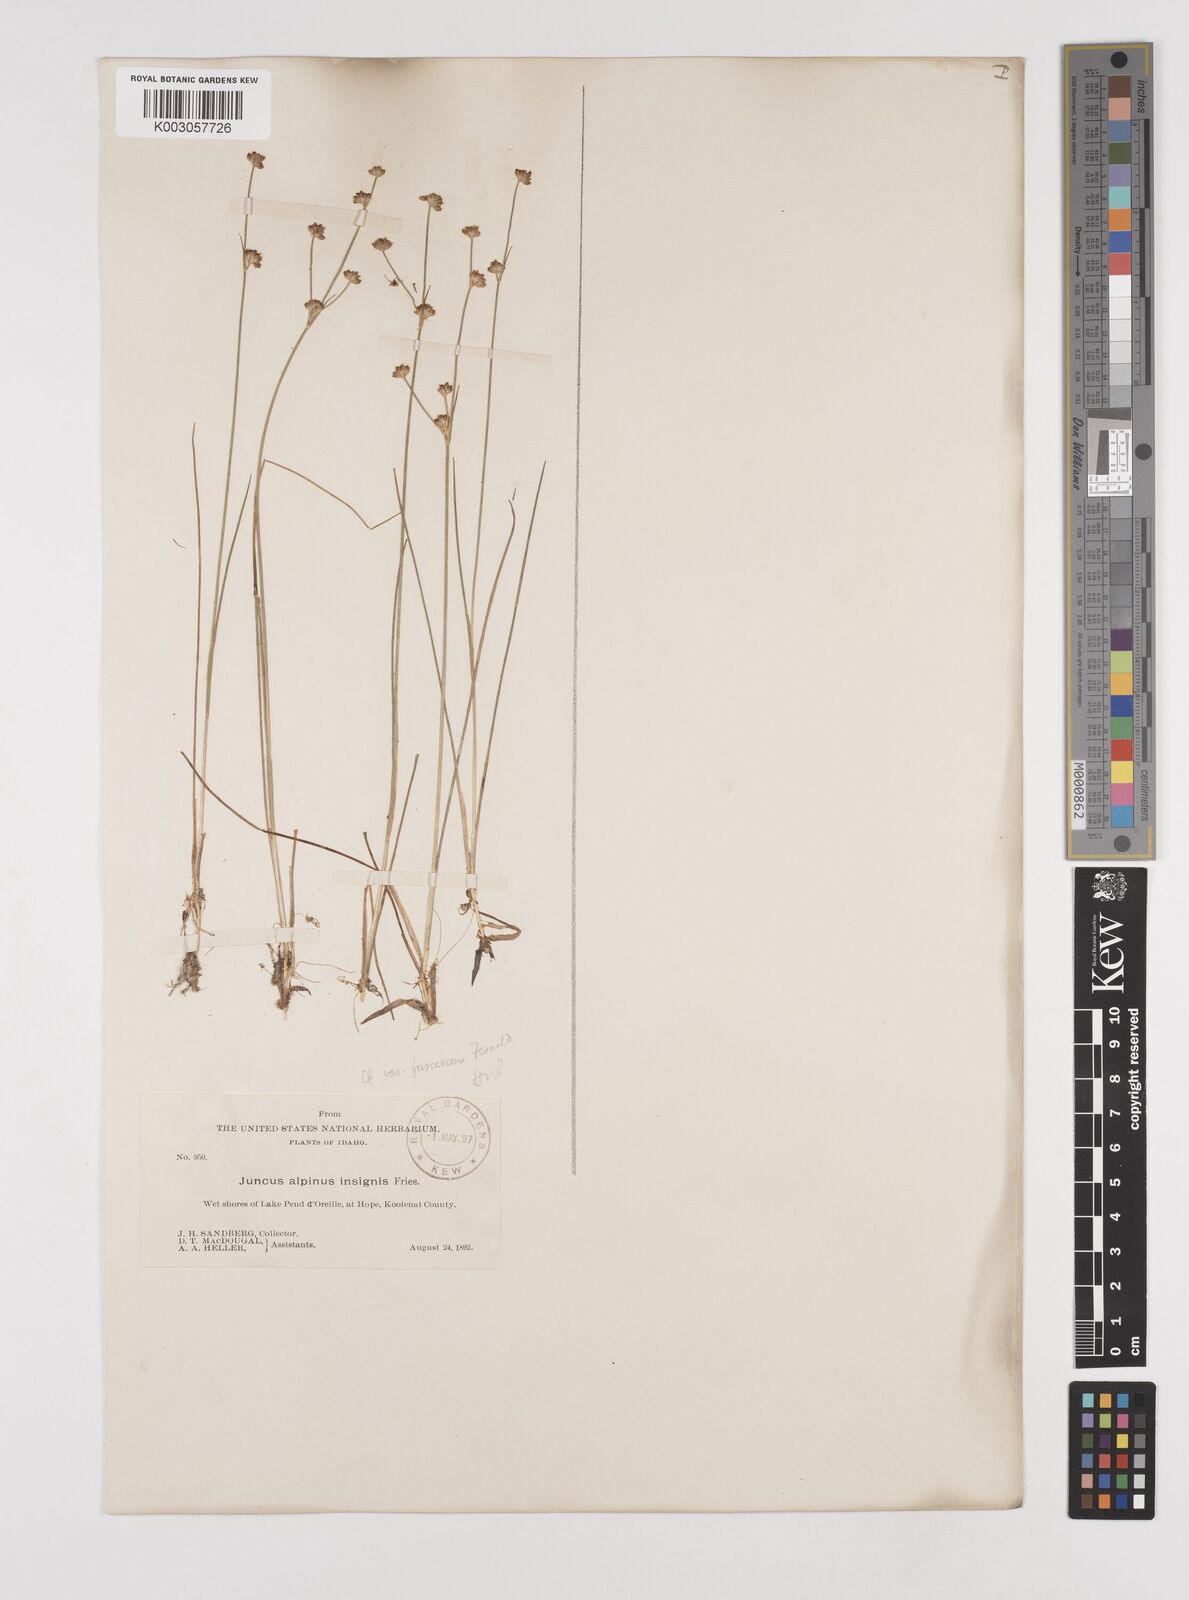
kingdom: Plantae
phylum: Tracheophyta
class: Liliopsida
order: Poales
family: Juncaceae
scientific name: Juncaceae
